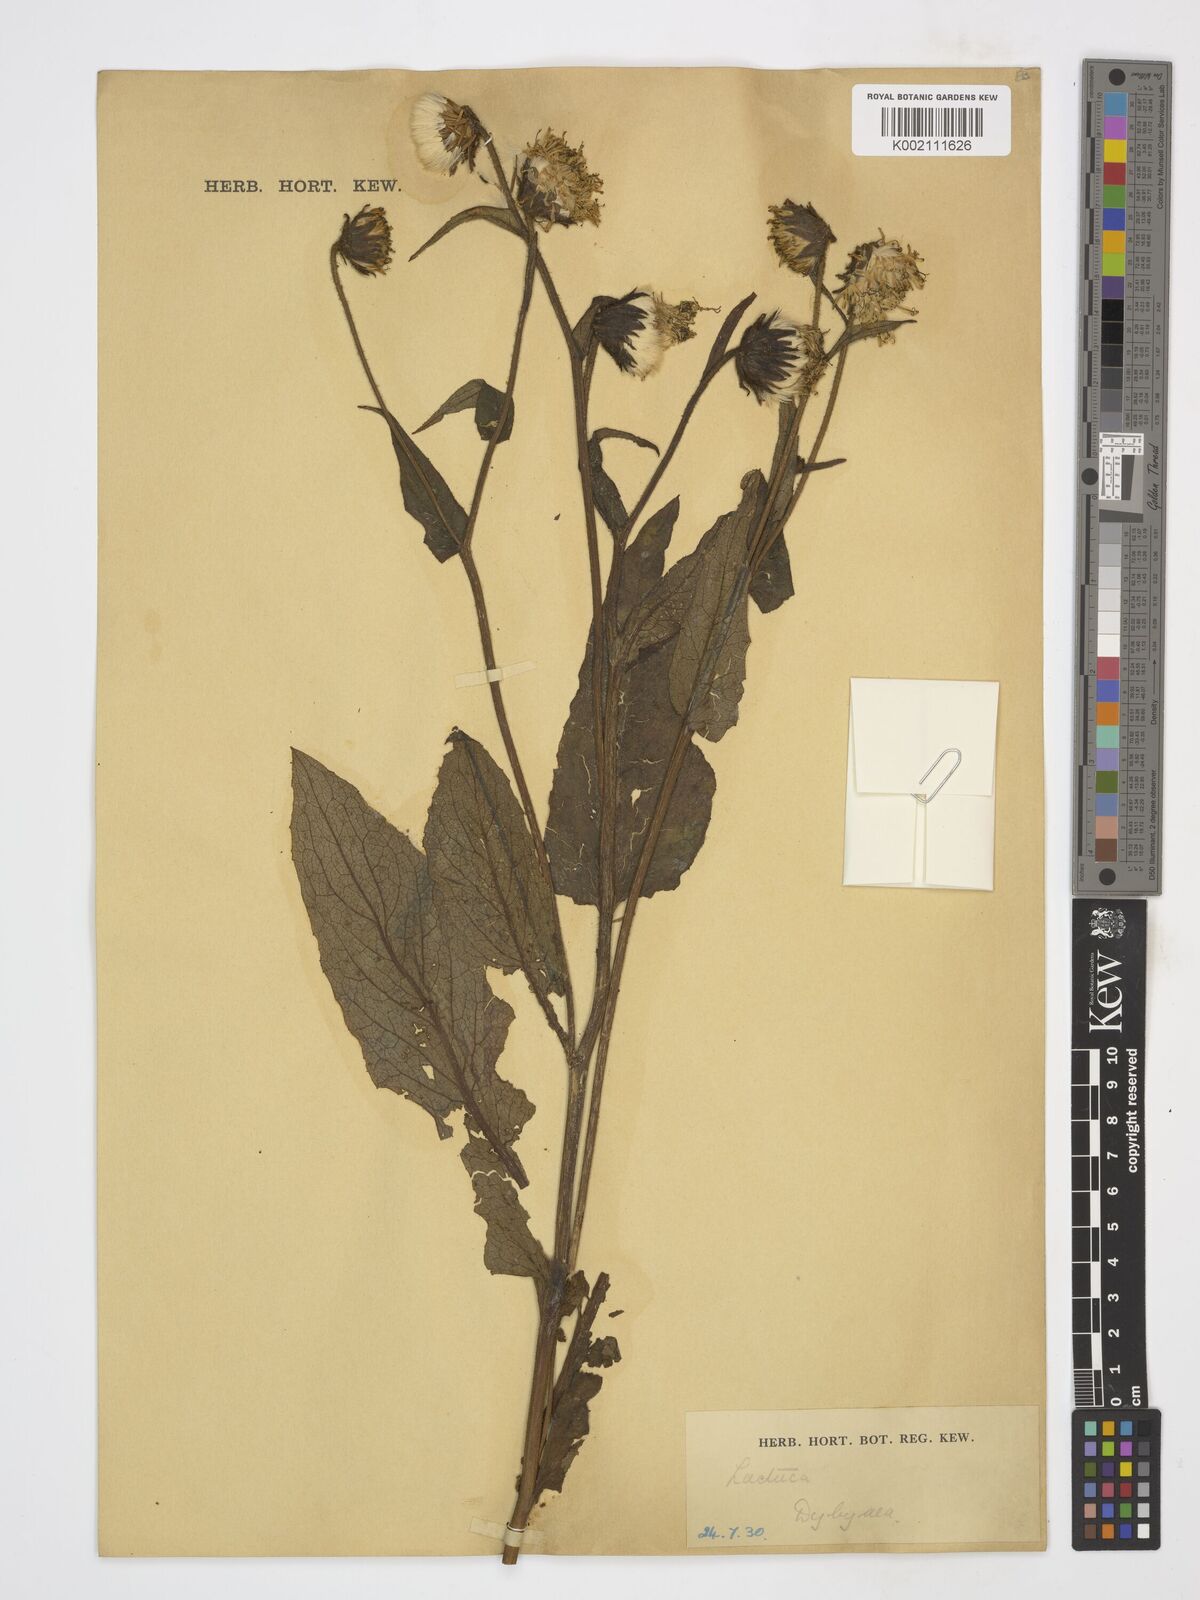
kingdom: Plantae
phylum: Tracheophyta
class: Magnoliopsida
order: Asterales
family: Asteraceae
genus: Dubyaea
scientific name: Dubyaea hispida
